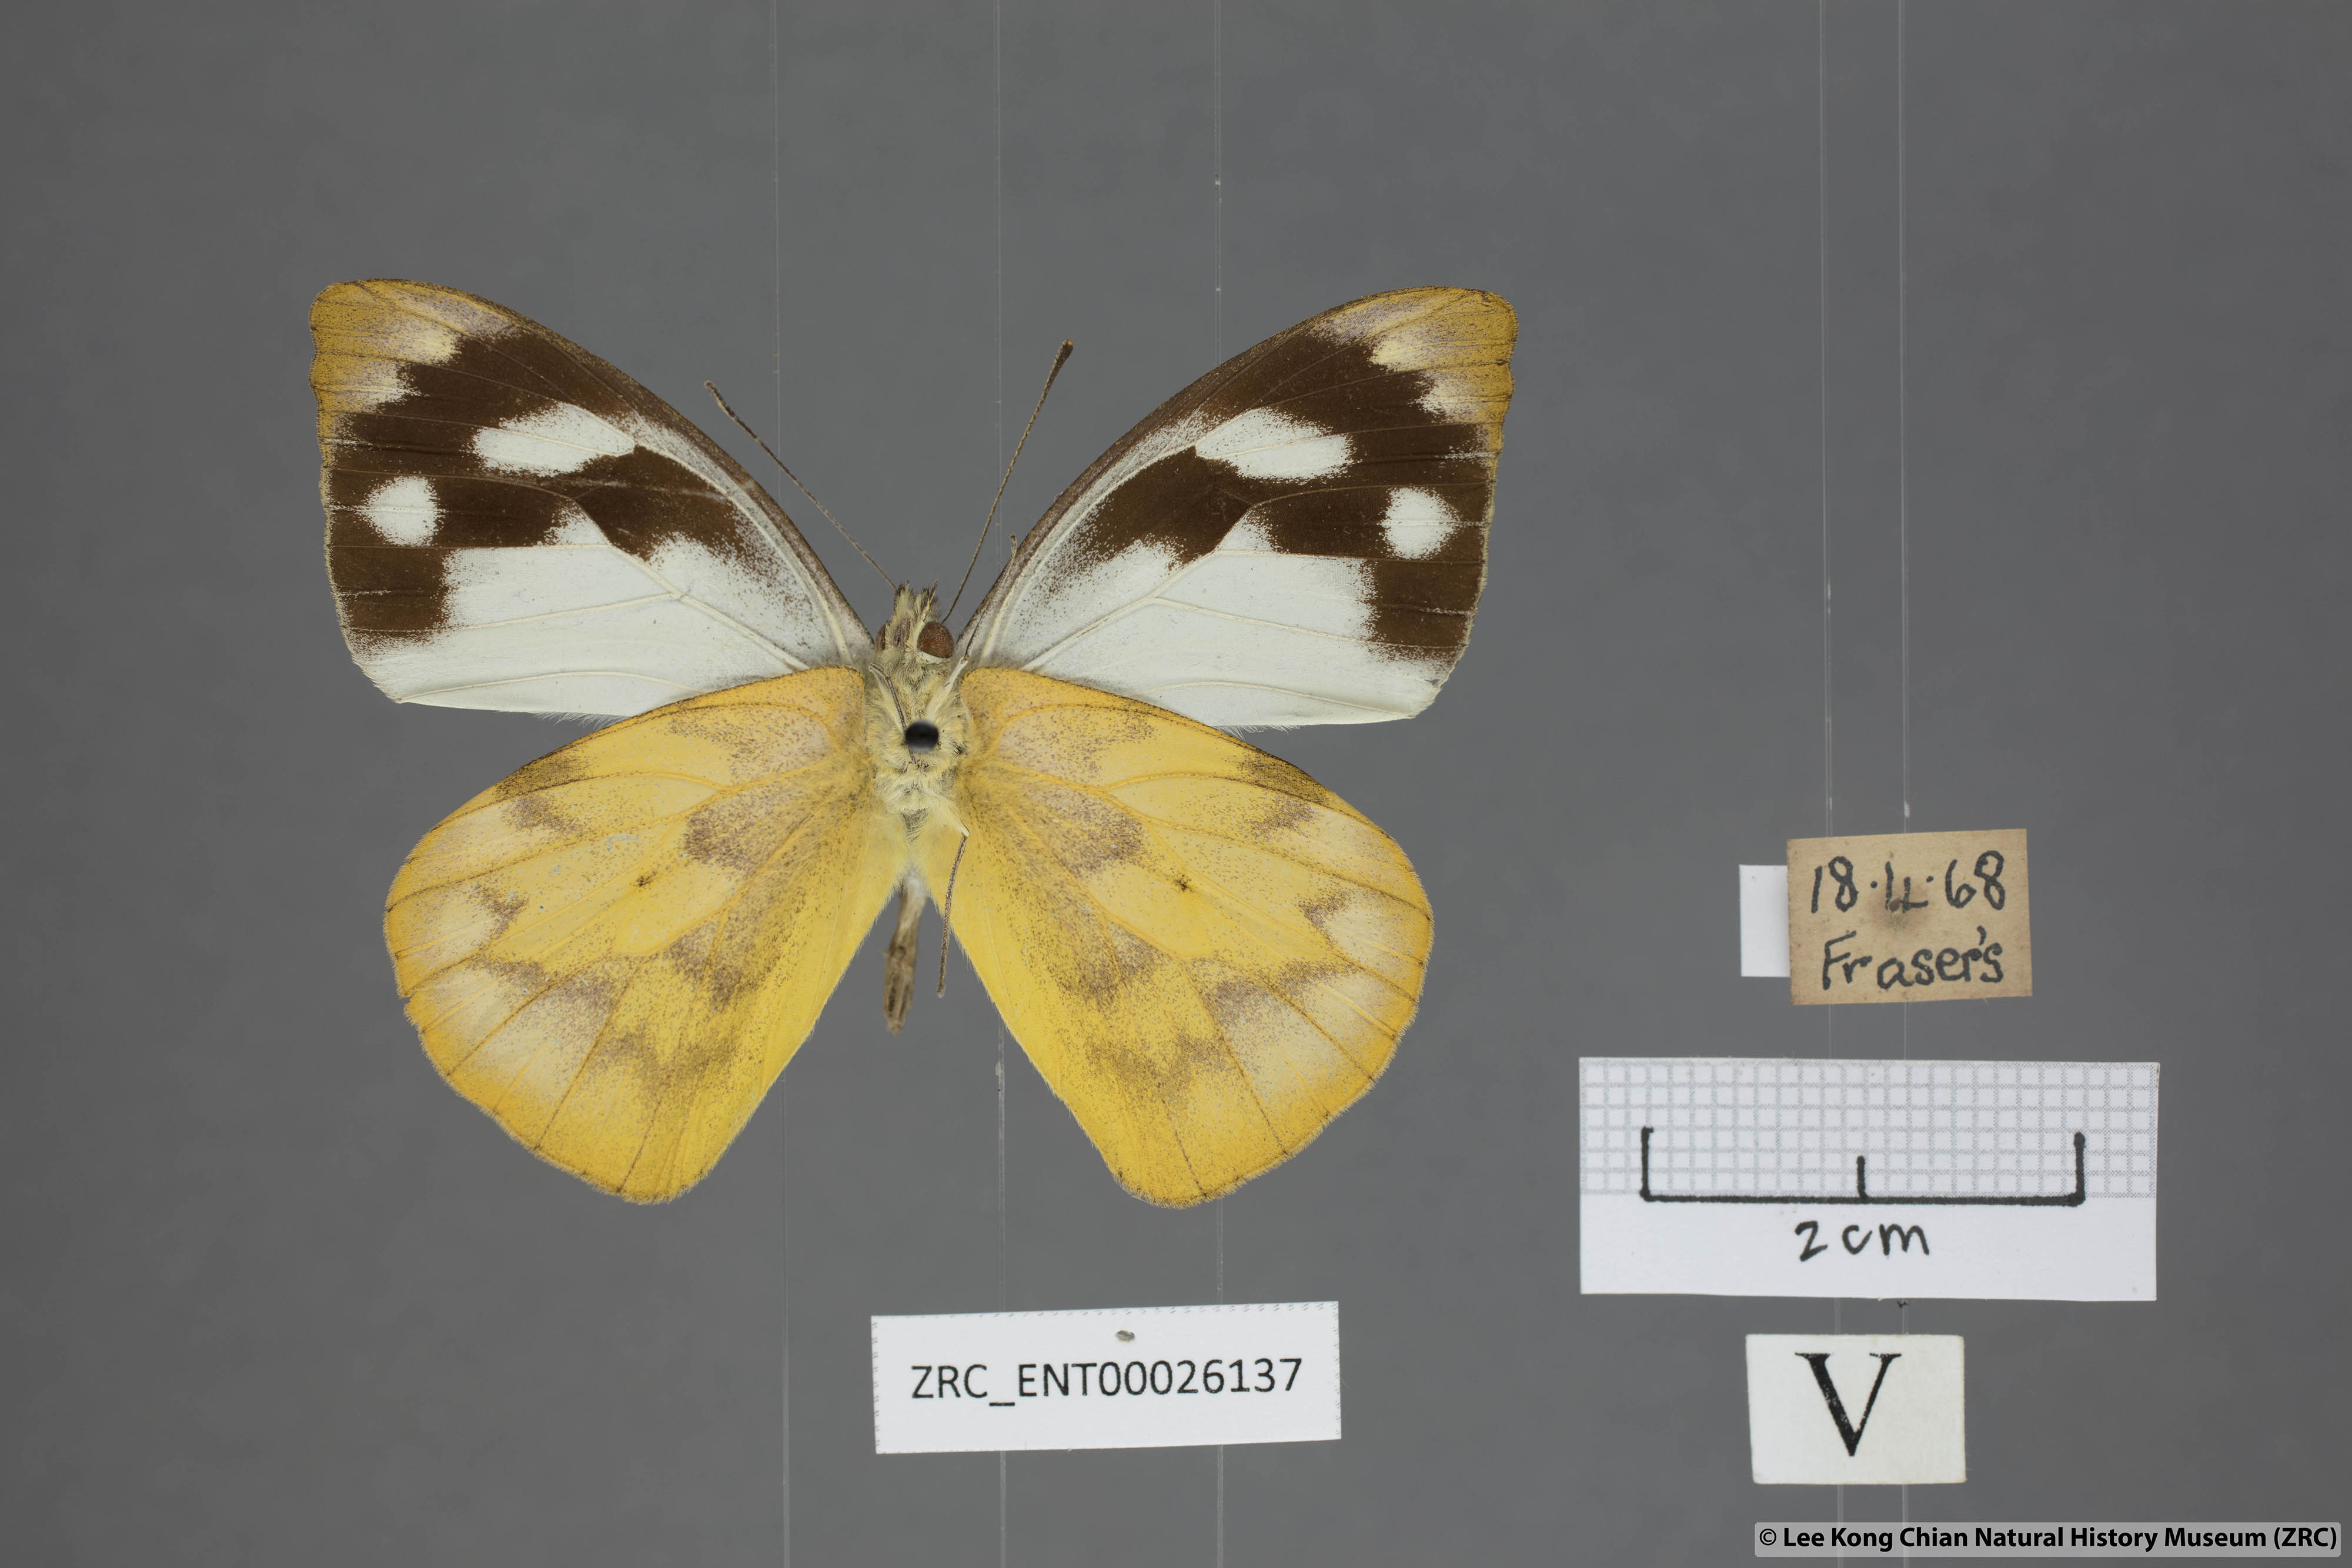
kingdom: Animalia
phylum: Arthropoda
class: Insecta
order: Lepidoptera
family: Pieridae
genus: Appias
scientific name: Appias pandione
